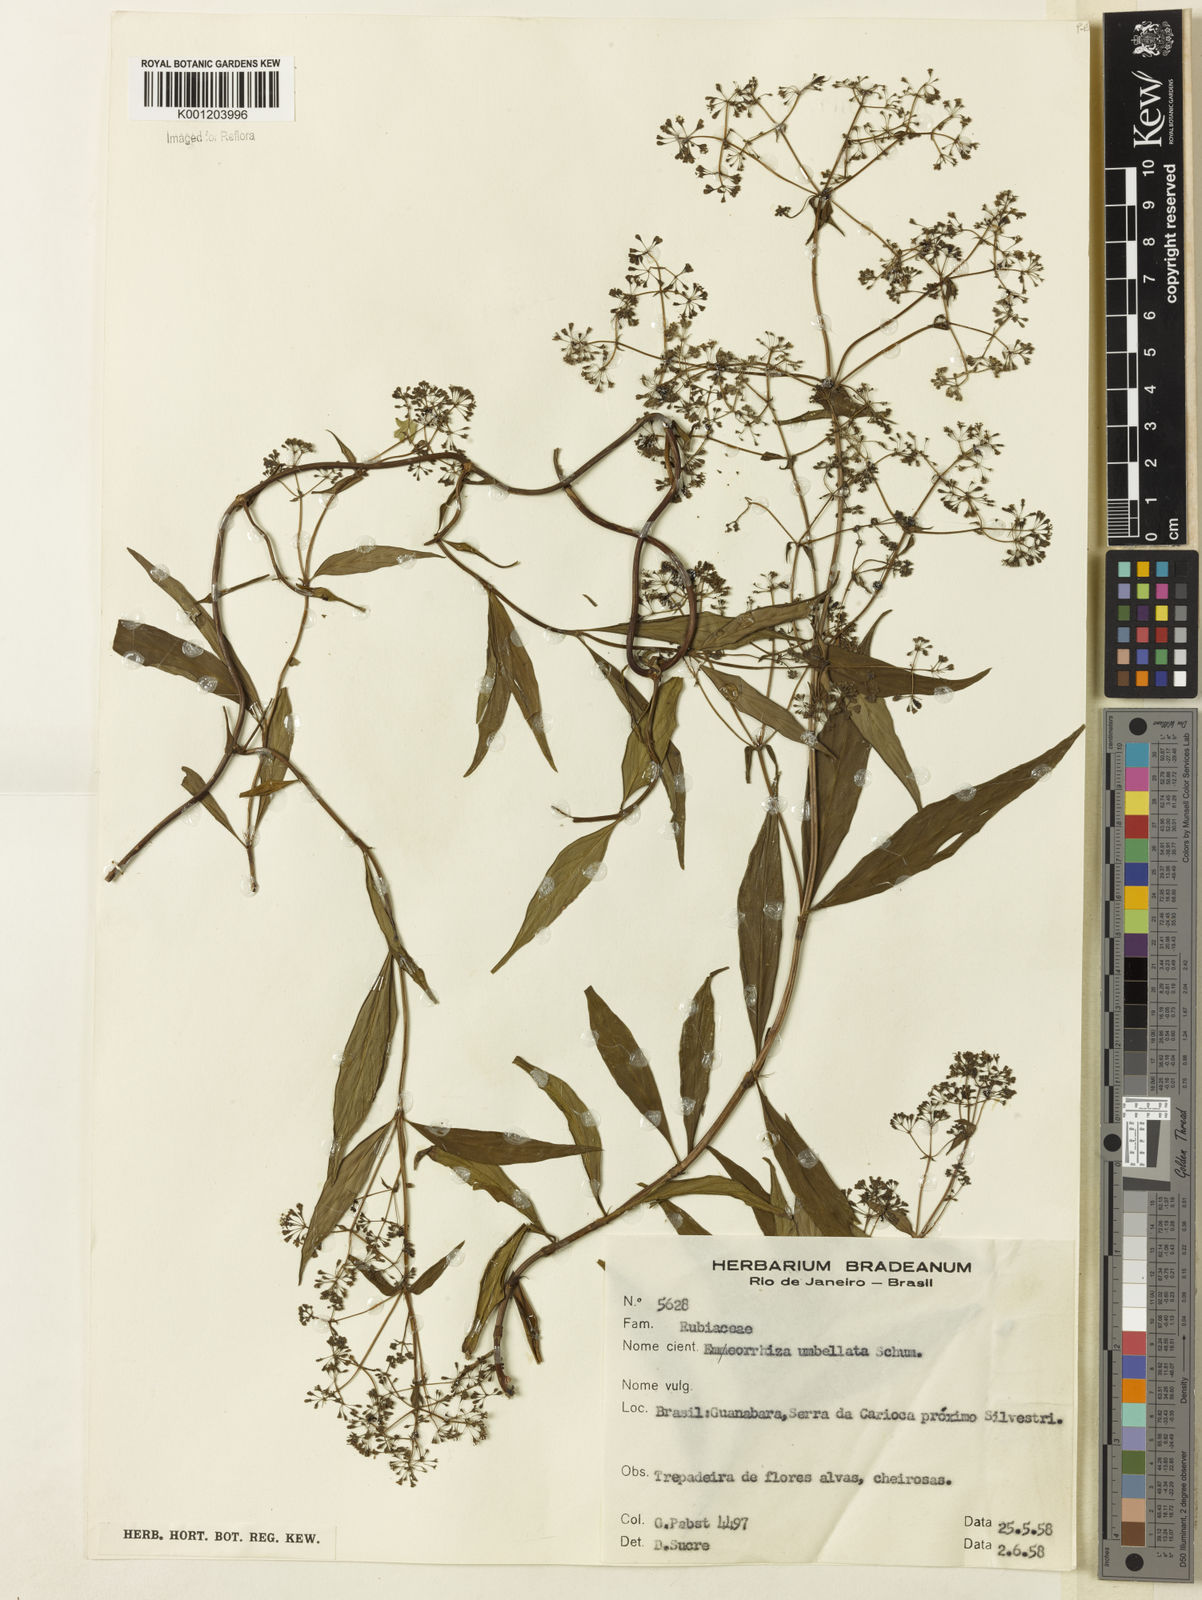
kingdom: Plantae
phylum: Tracheophyta
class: Magnoliopsida
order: Gentianales
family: Rubiaceae
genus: Emmeorhiza
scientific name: Emmeorhiza umbellata
